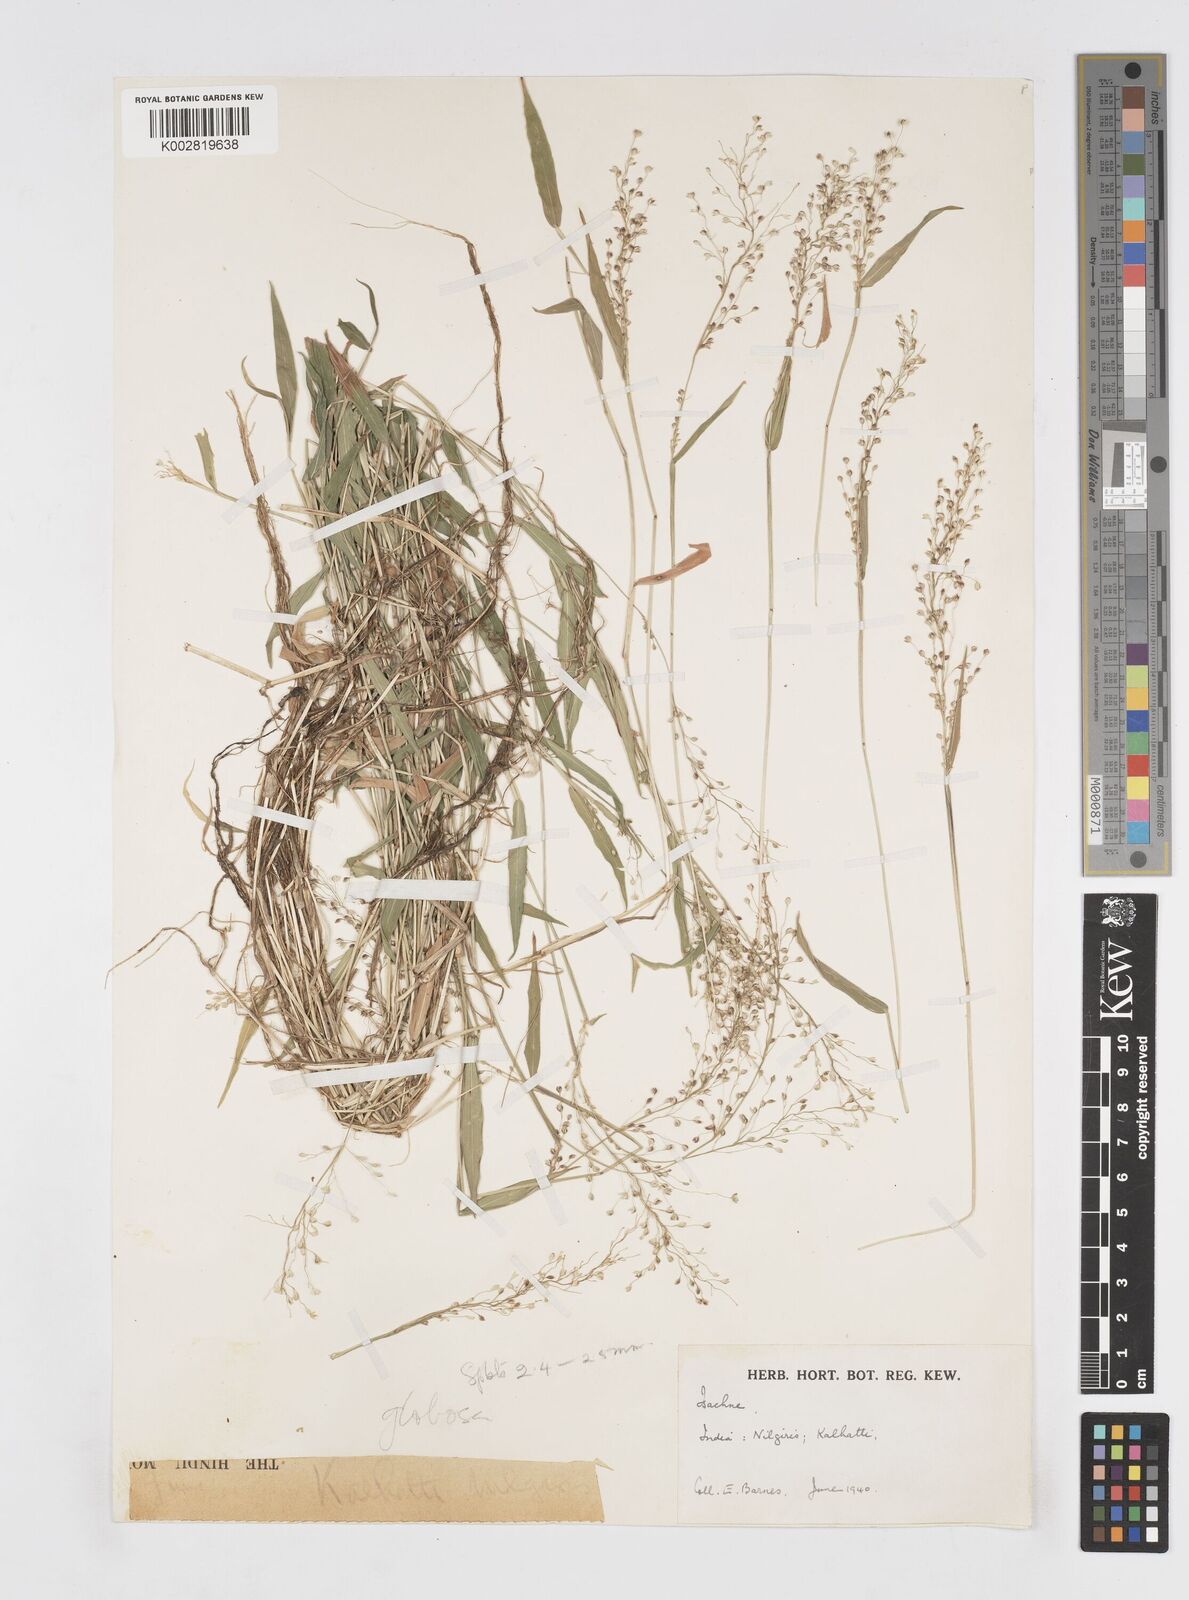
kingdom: Plantae
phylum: Tracheophyta
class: Liliopsida
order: Poales
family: Poaceae
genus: Isachne
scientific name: Isachne globosa
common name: Swamp millet
